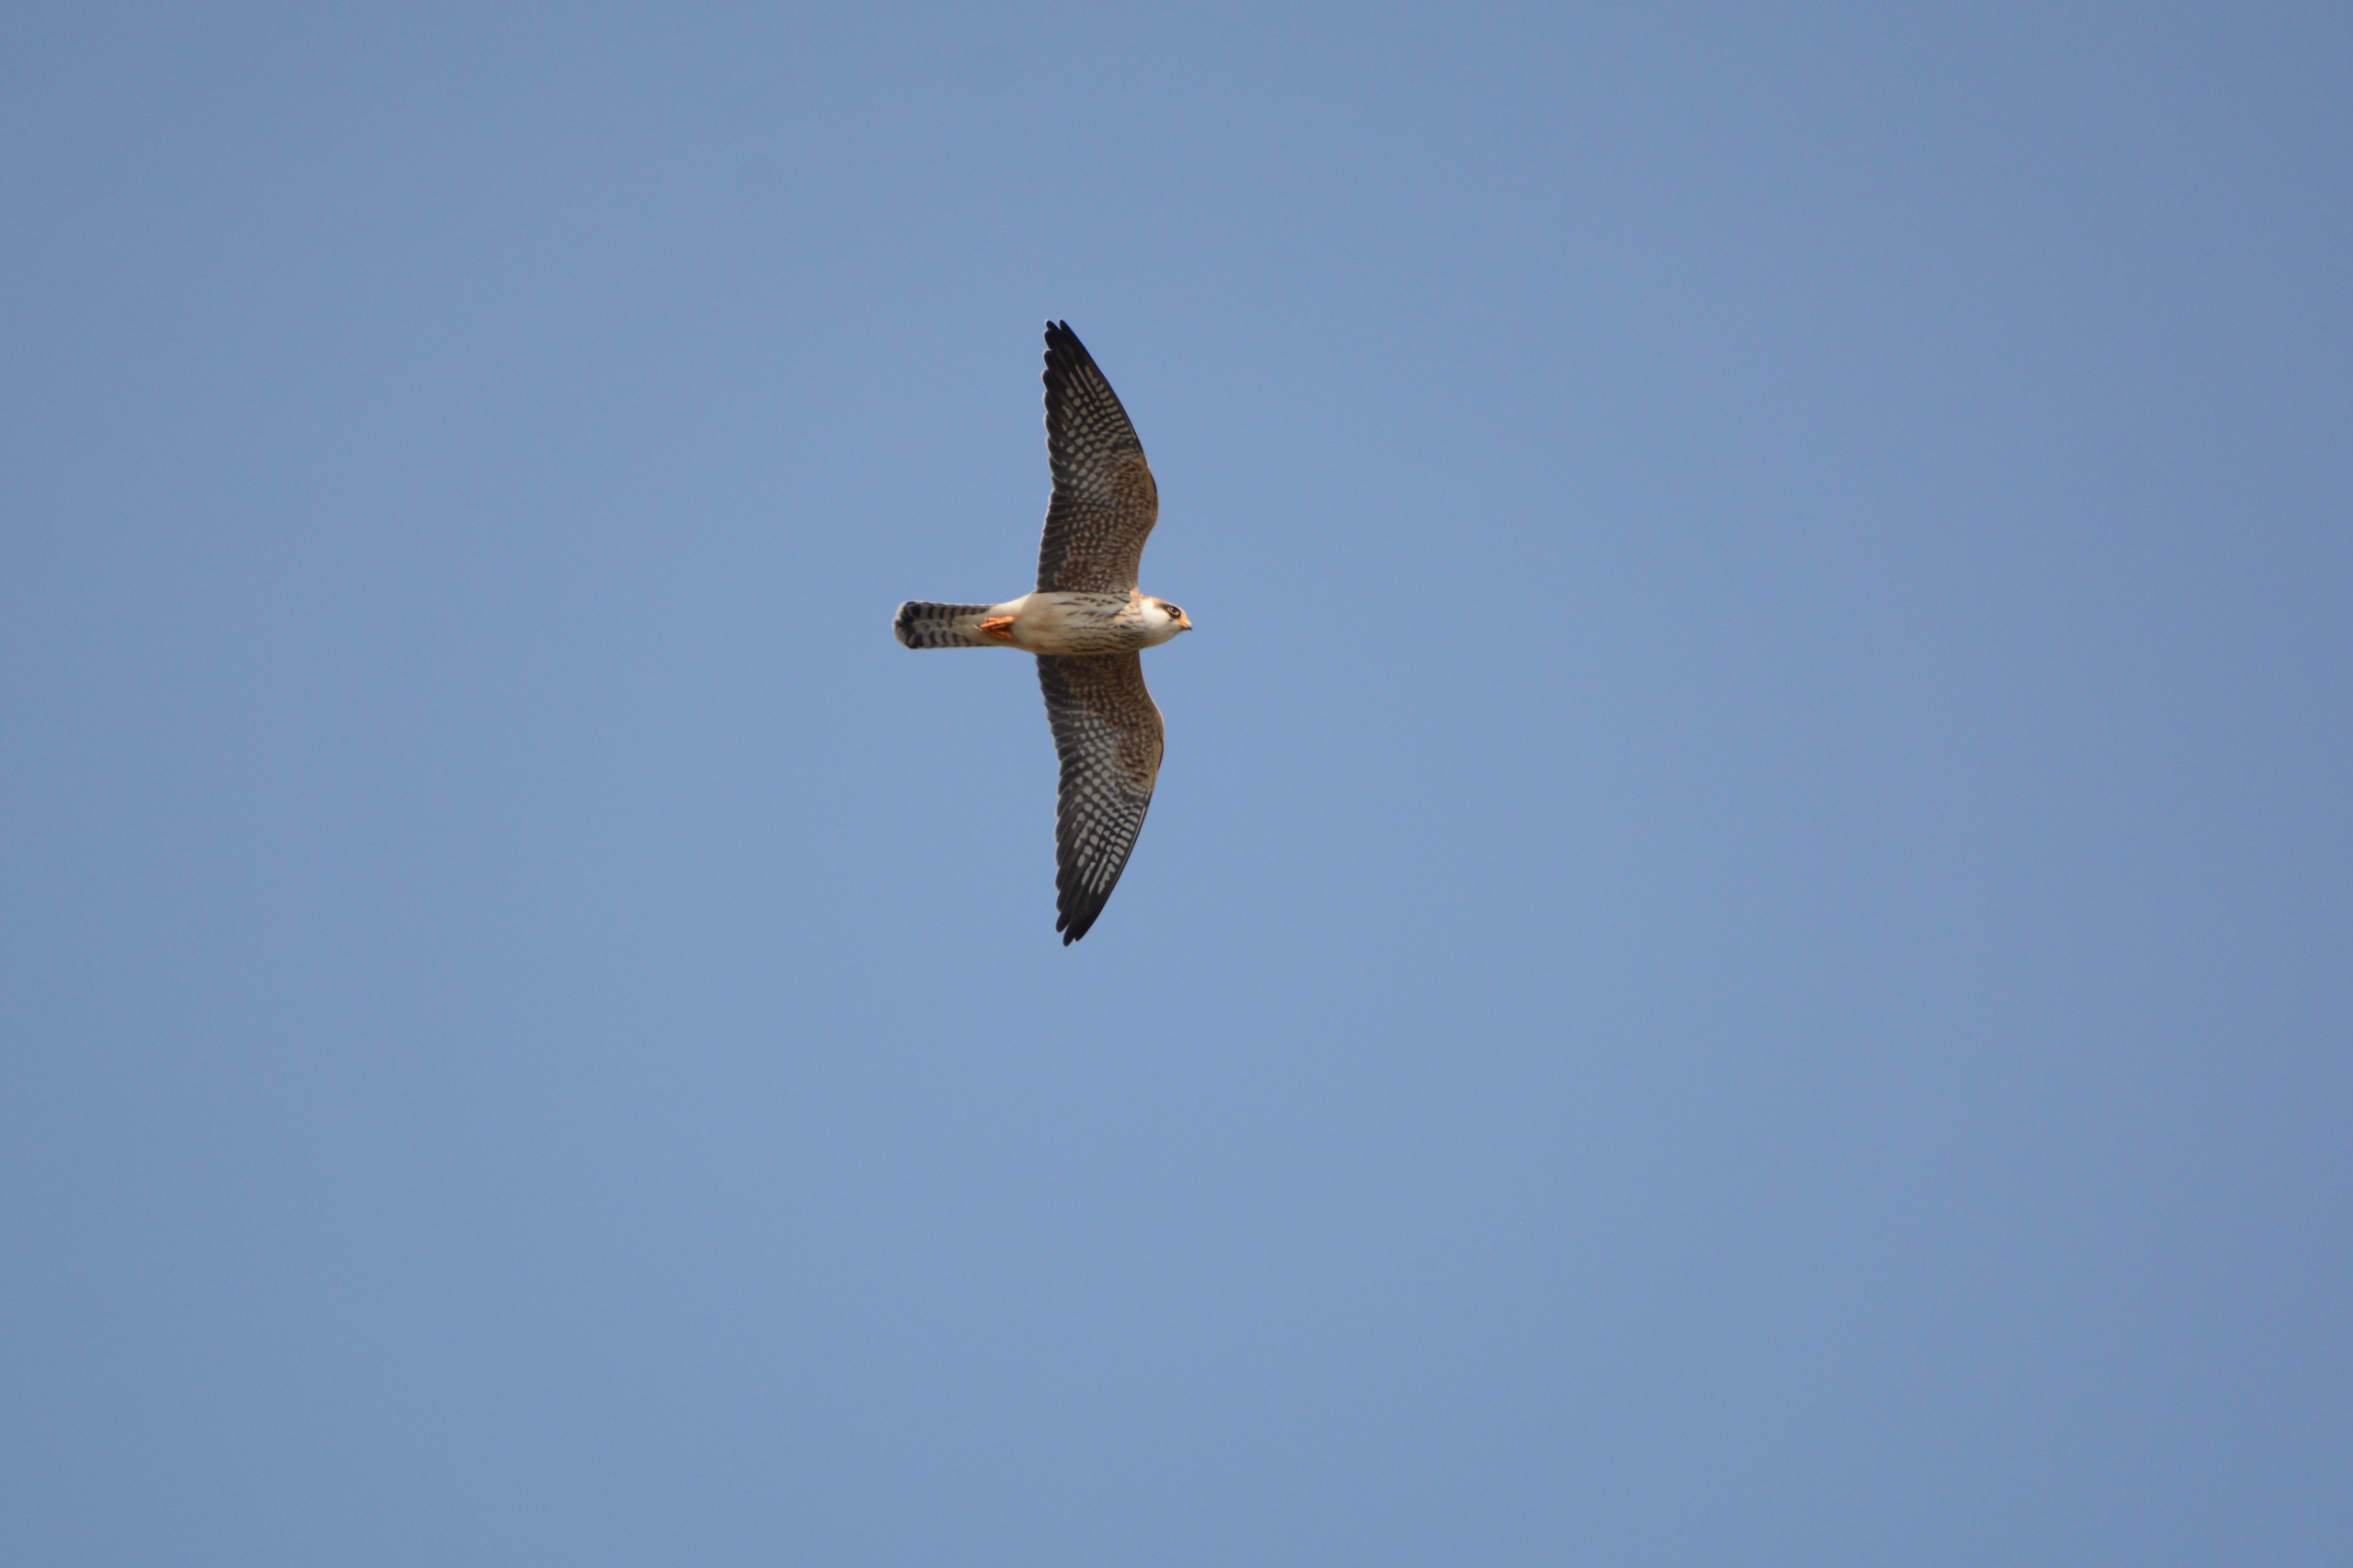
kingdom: Animalia
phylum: Chordata
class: Aves
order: Falconiformes
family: Falconidae
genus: Falco
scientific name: Falco vespertinus
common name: Aftenfalk
